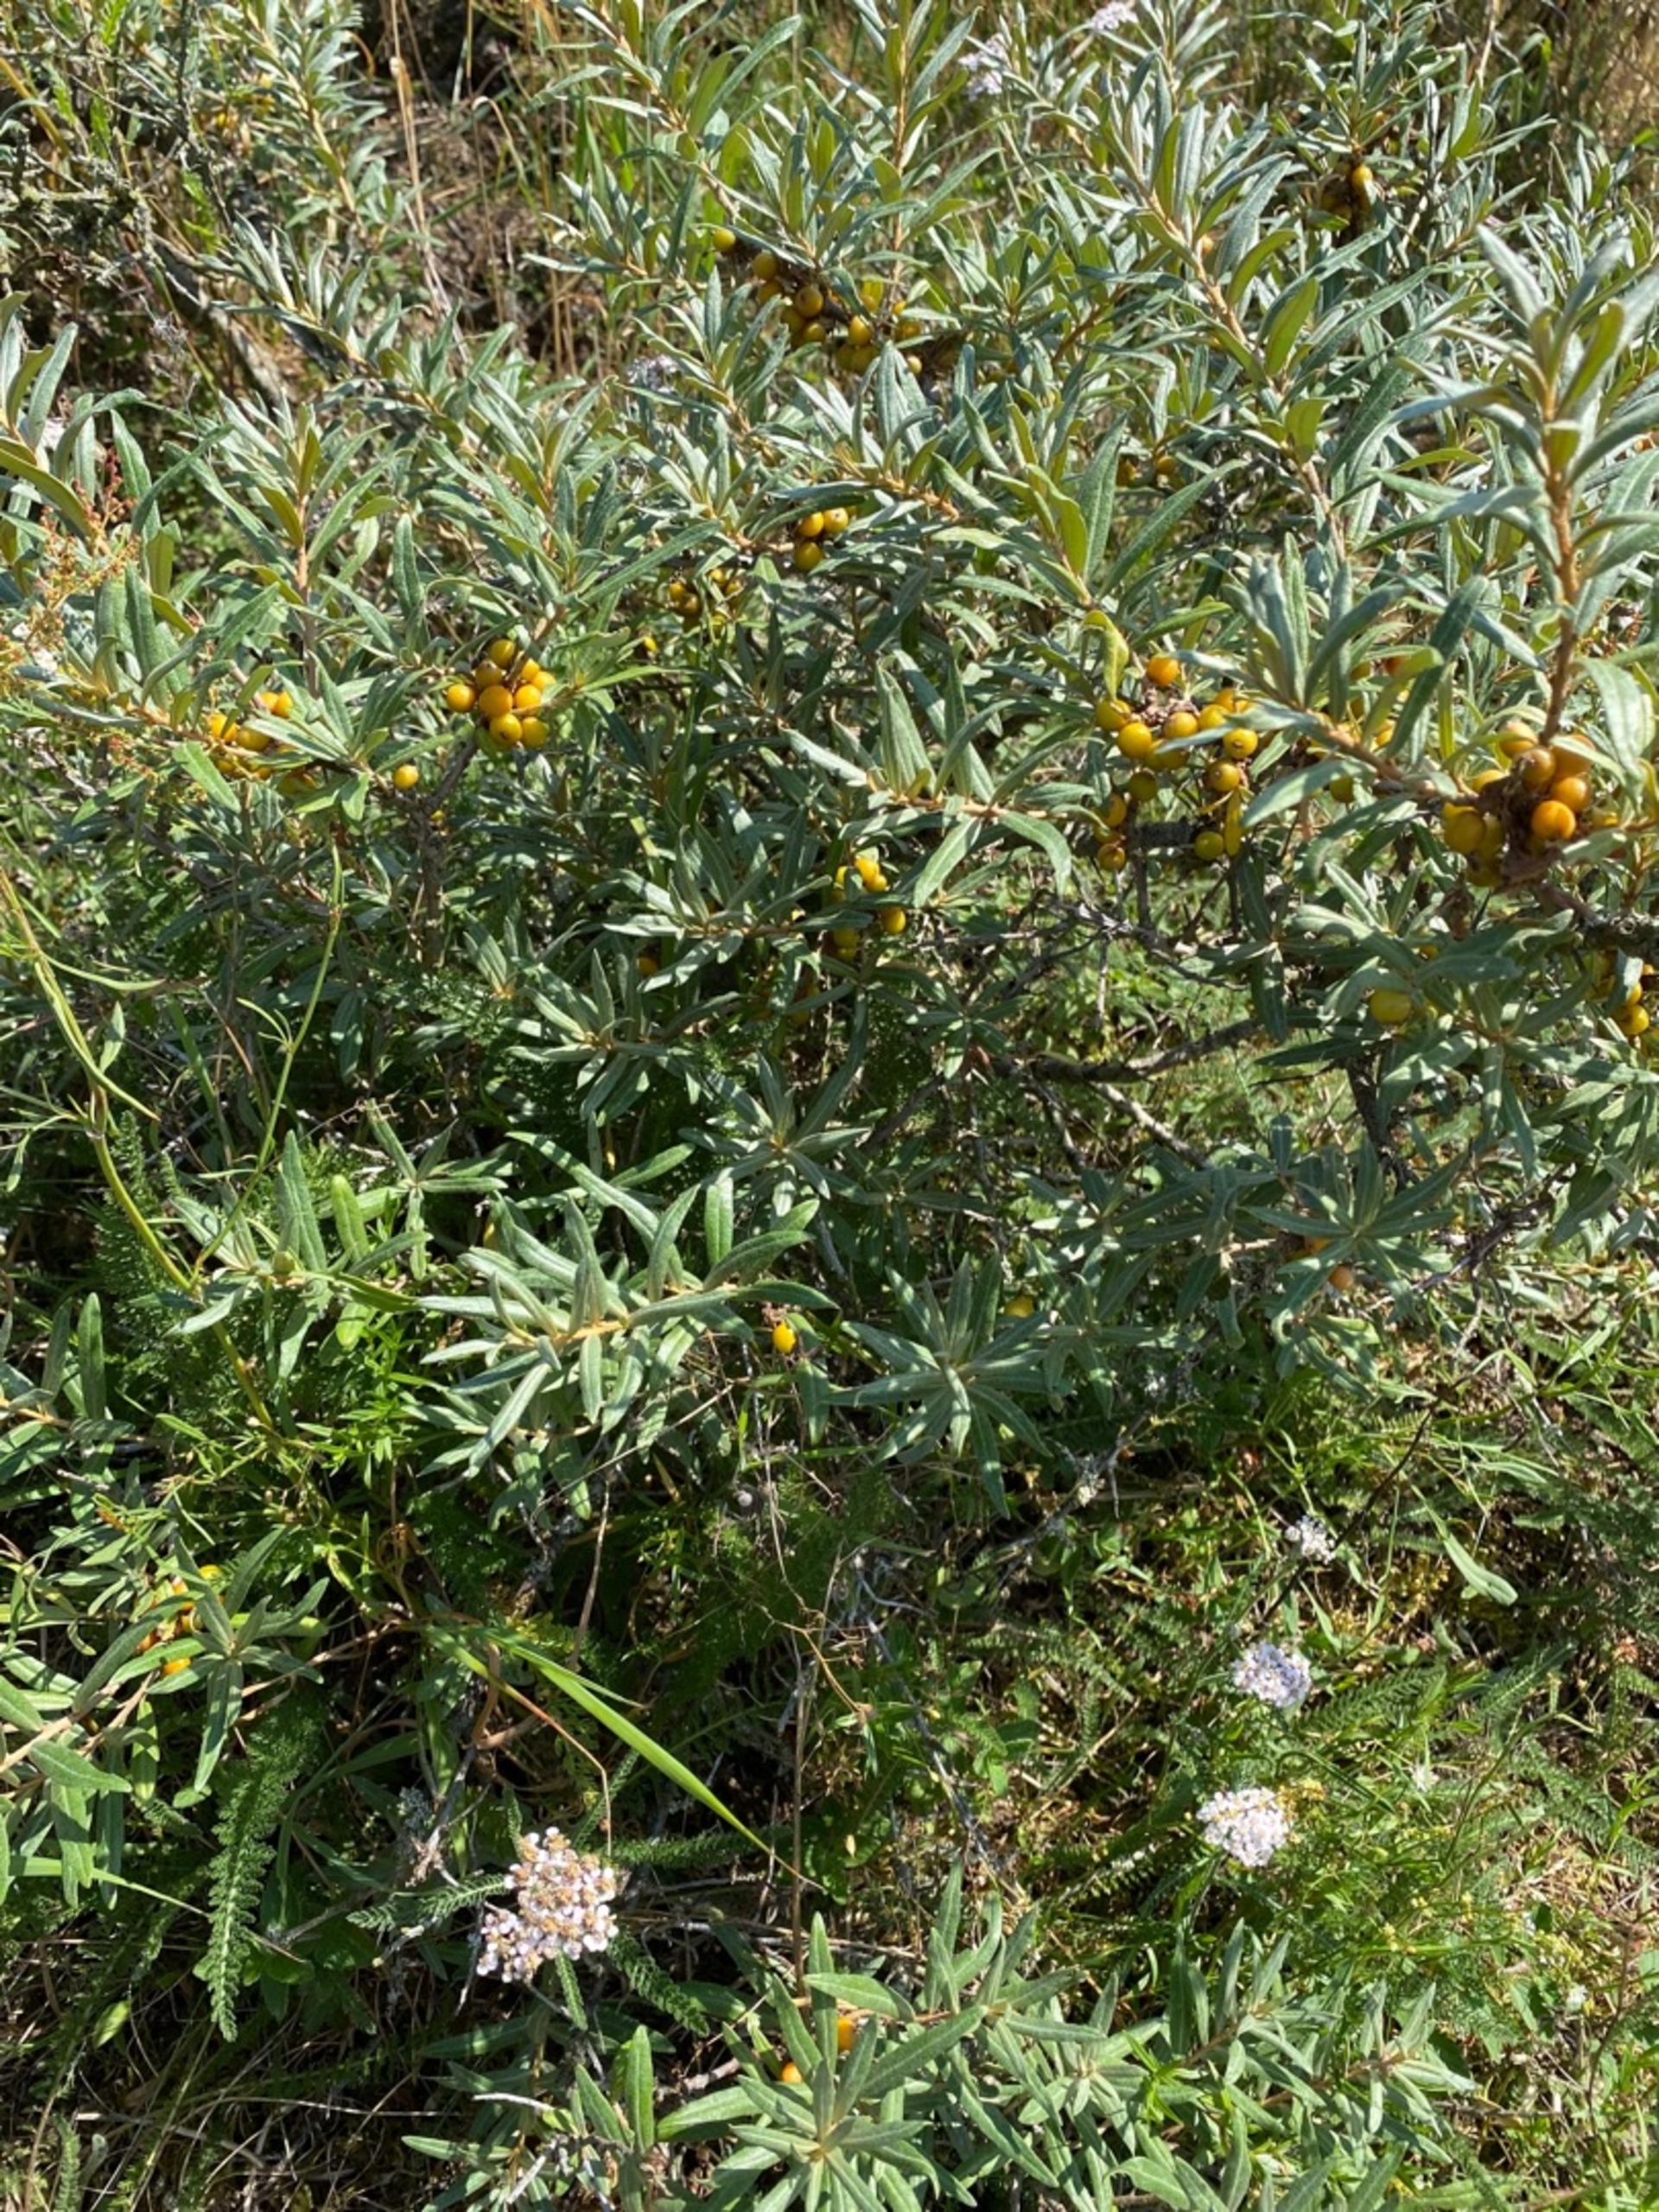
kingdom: Plantae
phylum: Tracheophyta
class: Magnoliopsida
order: Rosales
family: Elaeagnaceae
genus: Hippophae
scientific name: Hippophae rhamnoides
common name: Havtorn
